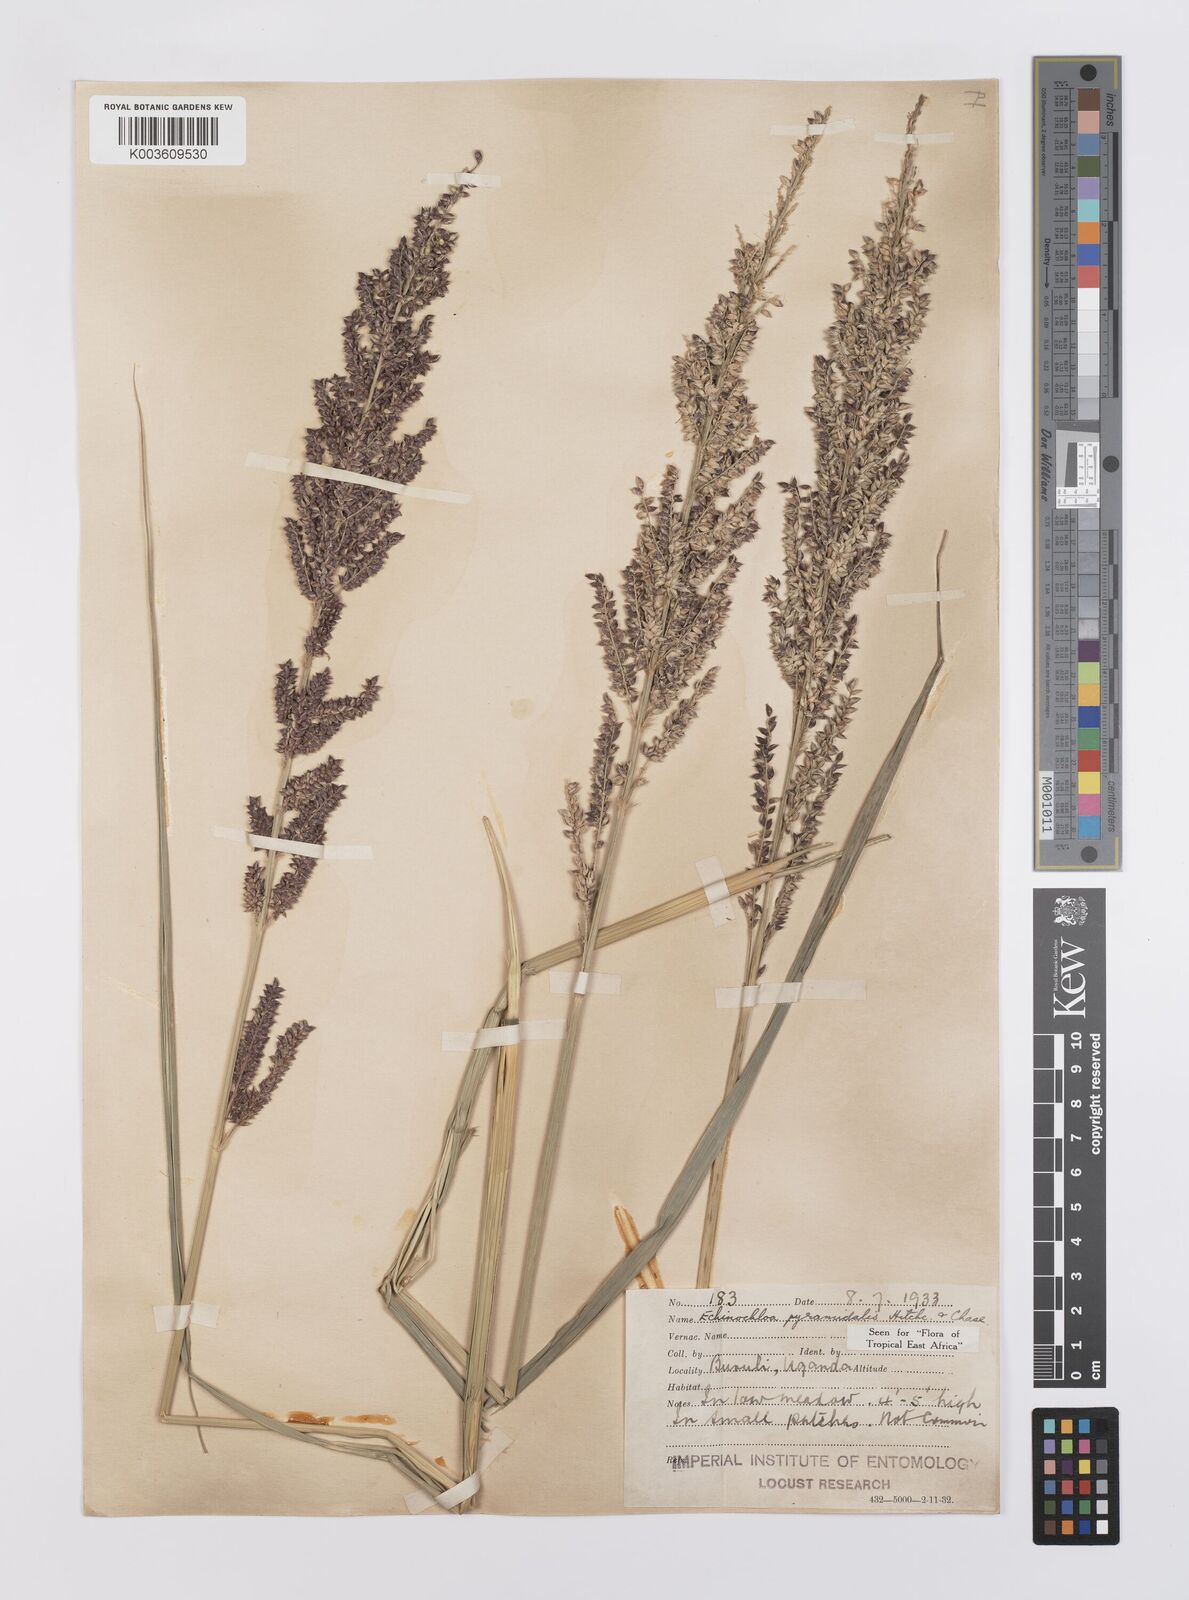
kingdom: Plantae
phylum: Tracheophyta
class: Liliopsida
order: Poales
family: Poaceae
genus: Echinochloa
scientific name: Echinochloa pyramidalis
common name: Antelope grass
